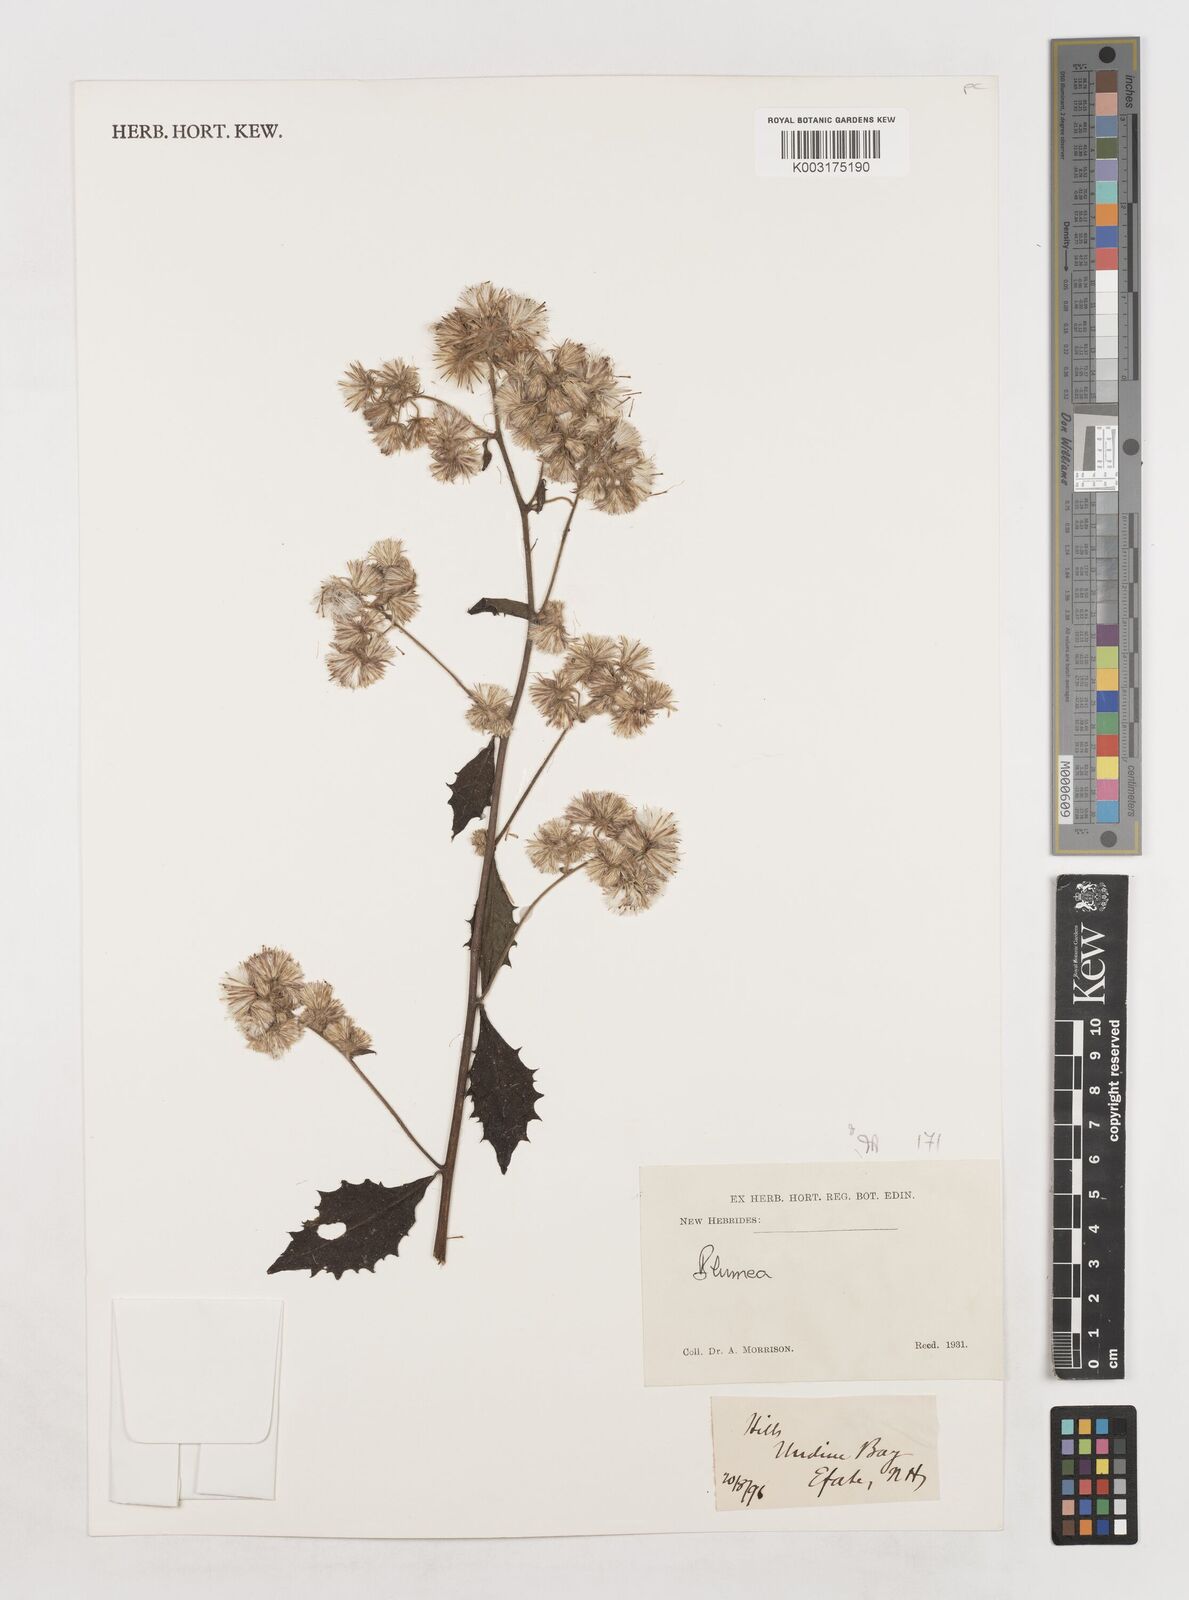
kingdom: Plantae
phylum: Tracheophyta
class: Magnoliopsida
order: Asterales
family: Asteraceae
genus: Blumea
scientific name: Blumea
